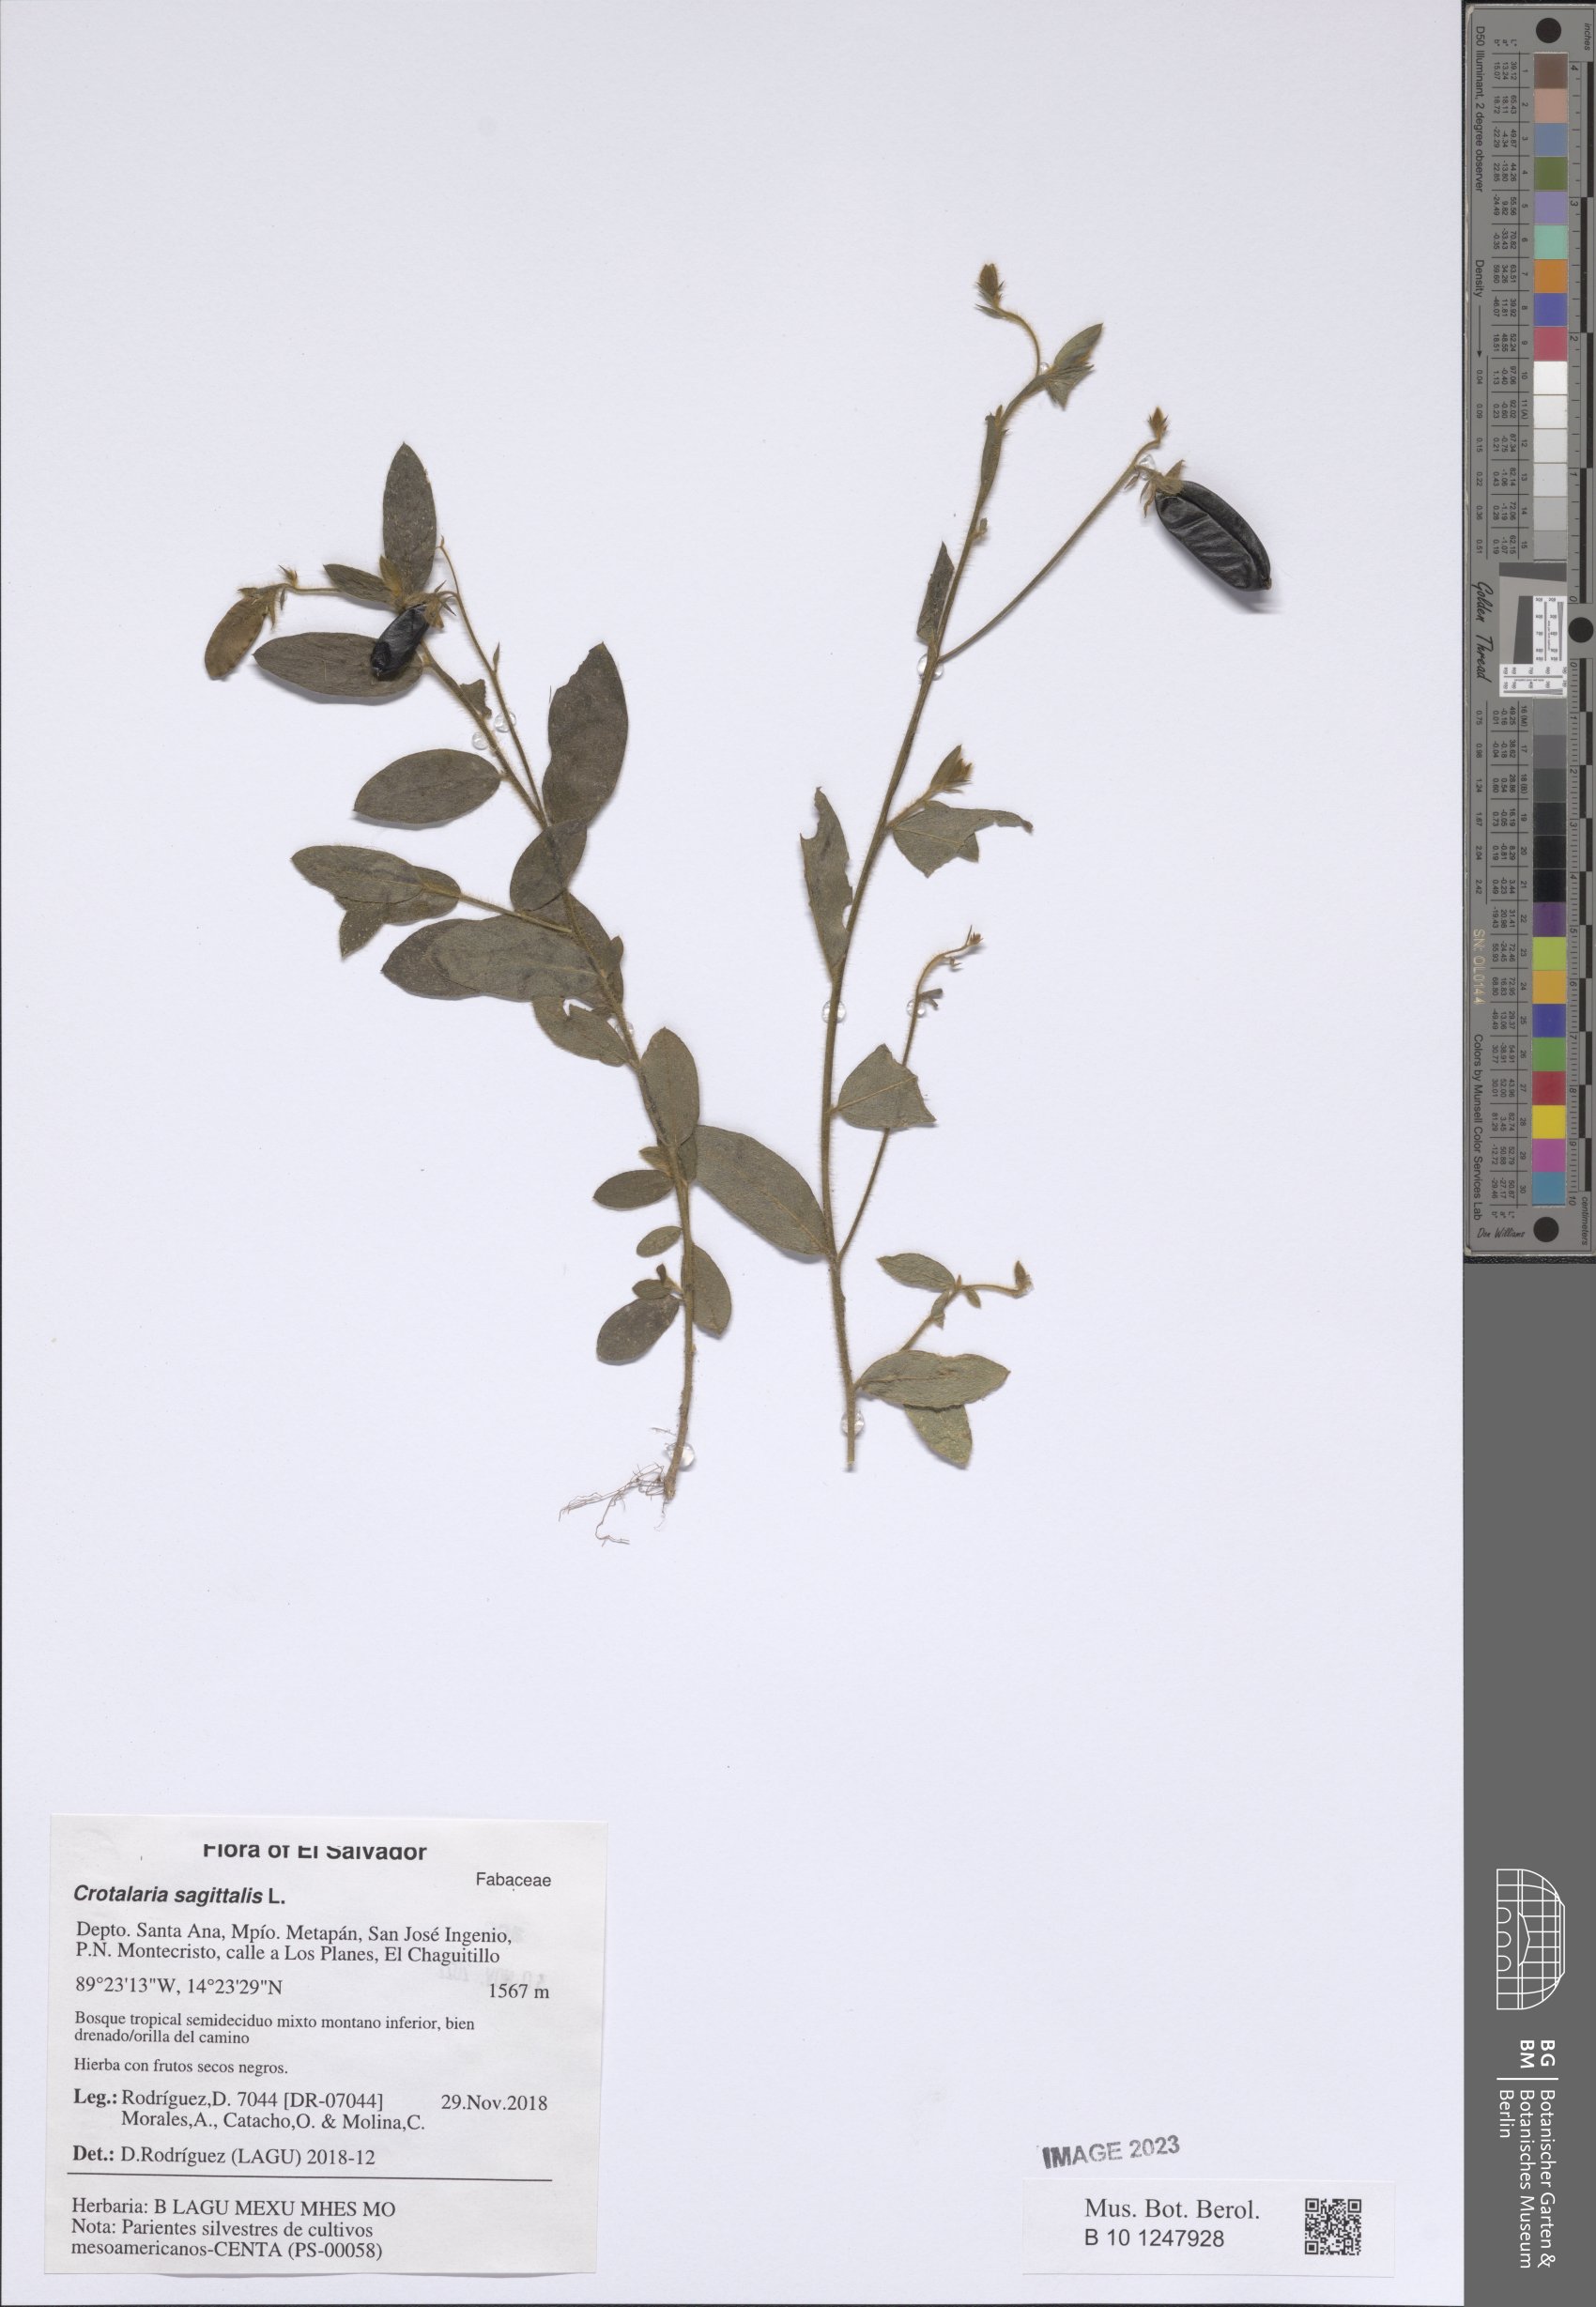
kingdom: Plantae
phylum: Tracheophyta
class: Magnoliopsida
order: Fabales
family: Fabaceae
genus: Crotalaria
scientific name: Crotalaria sagittalis
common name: Arrowhead rattlebox
